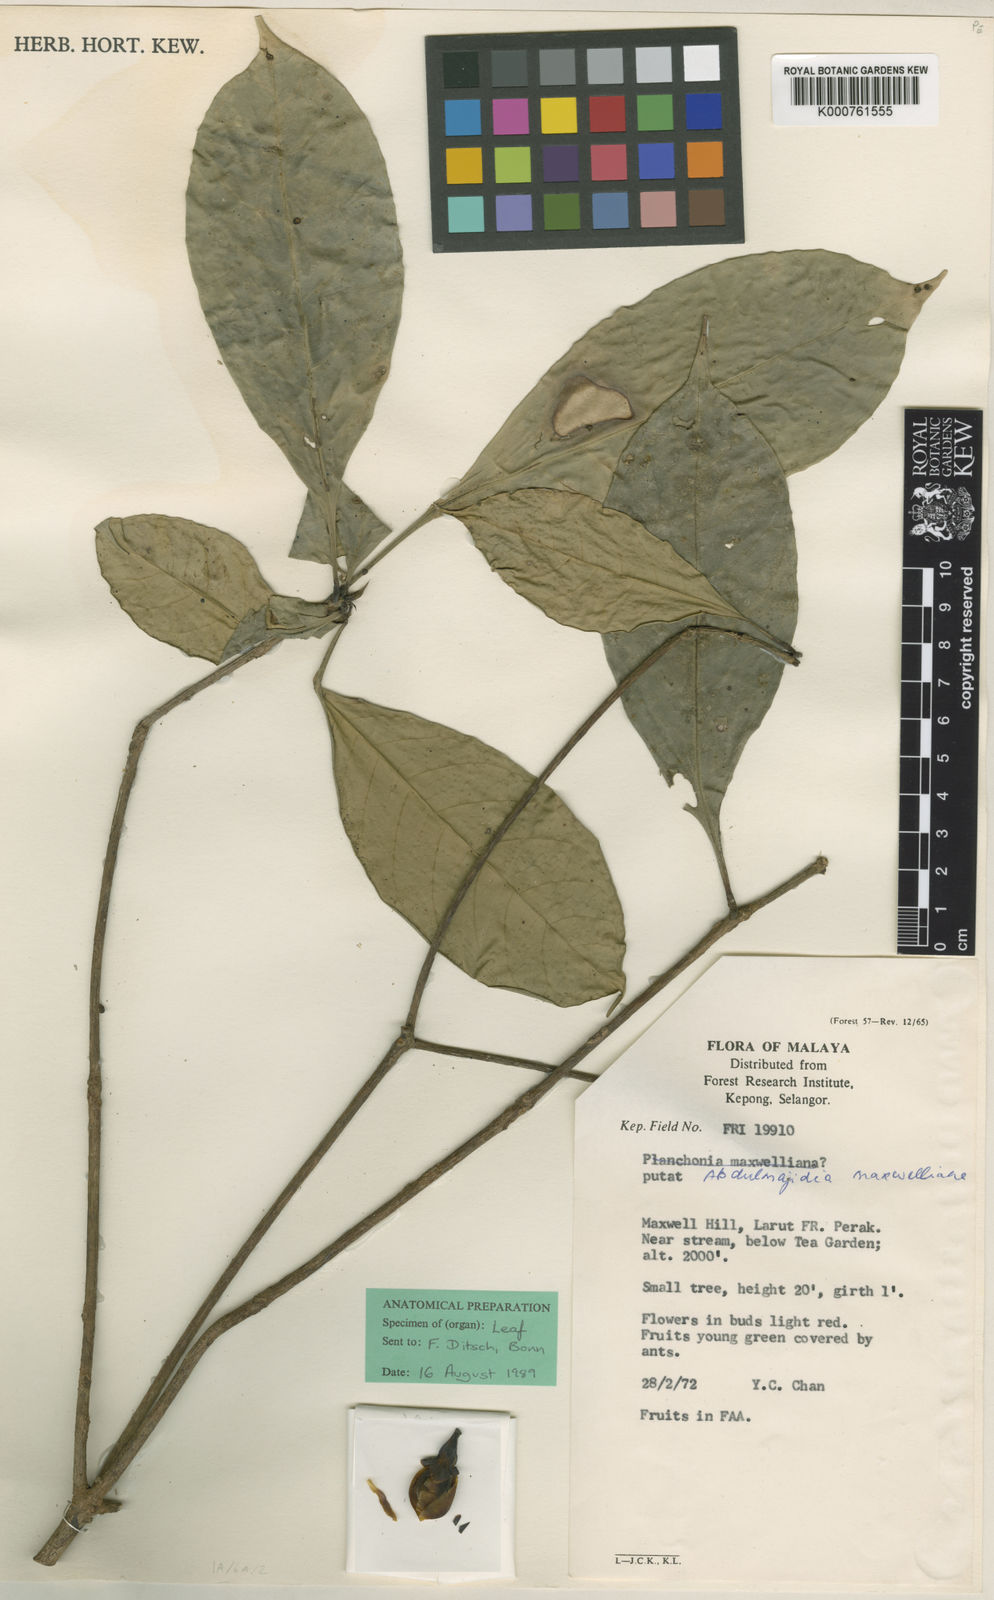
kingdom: Plantae
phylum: Tracheophyta
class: Magnoliopsida
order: Ericales
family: Lecythidaceae
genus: Barringtonia
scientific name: Barringtonia maxwelliana
